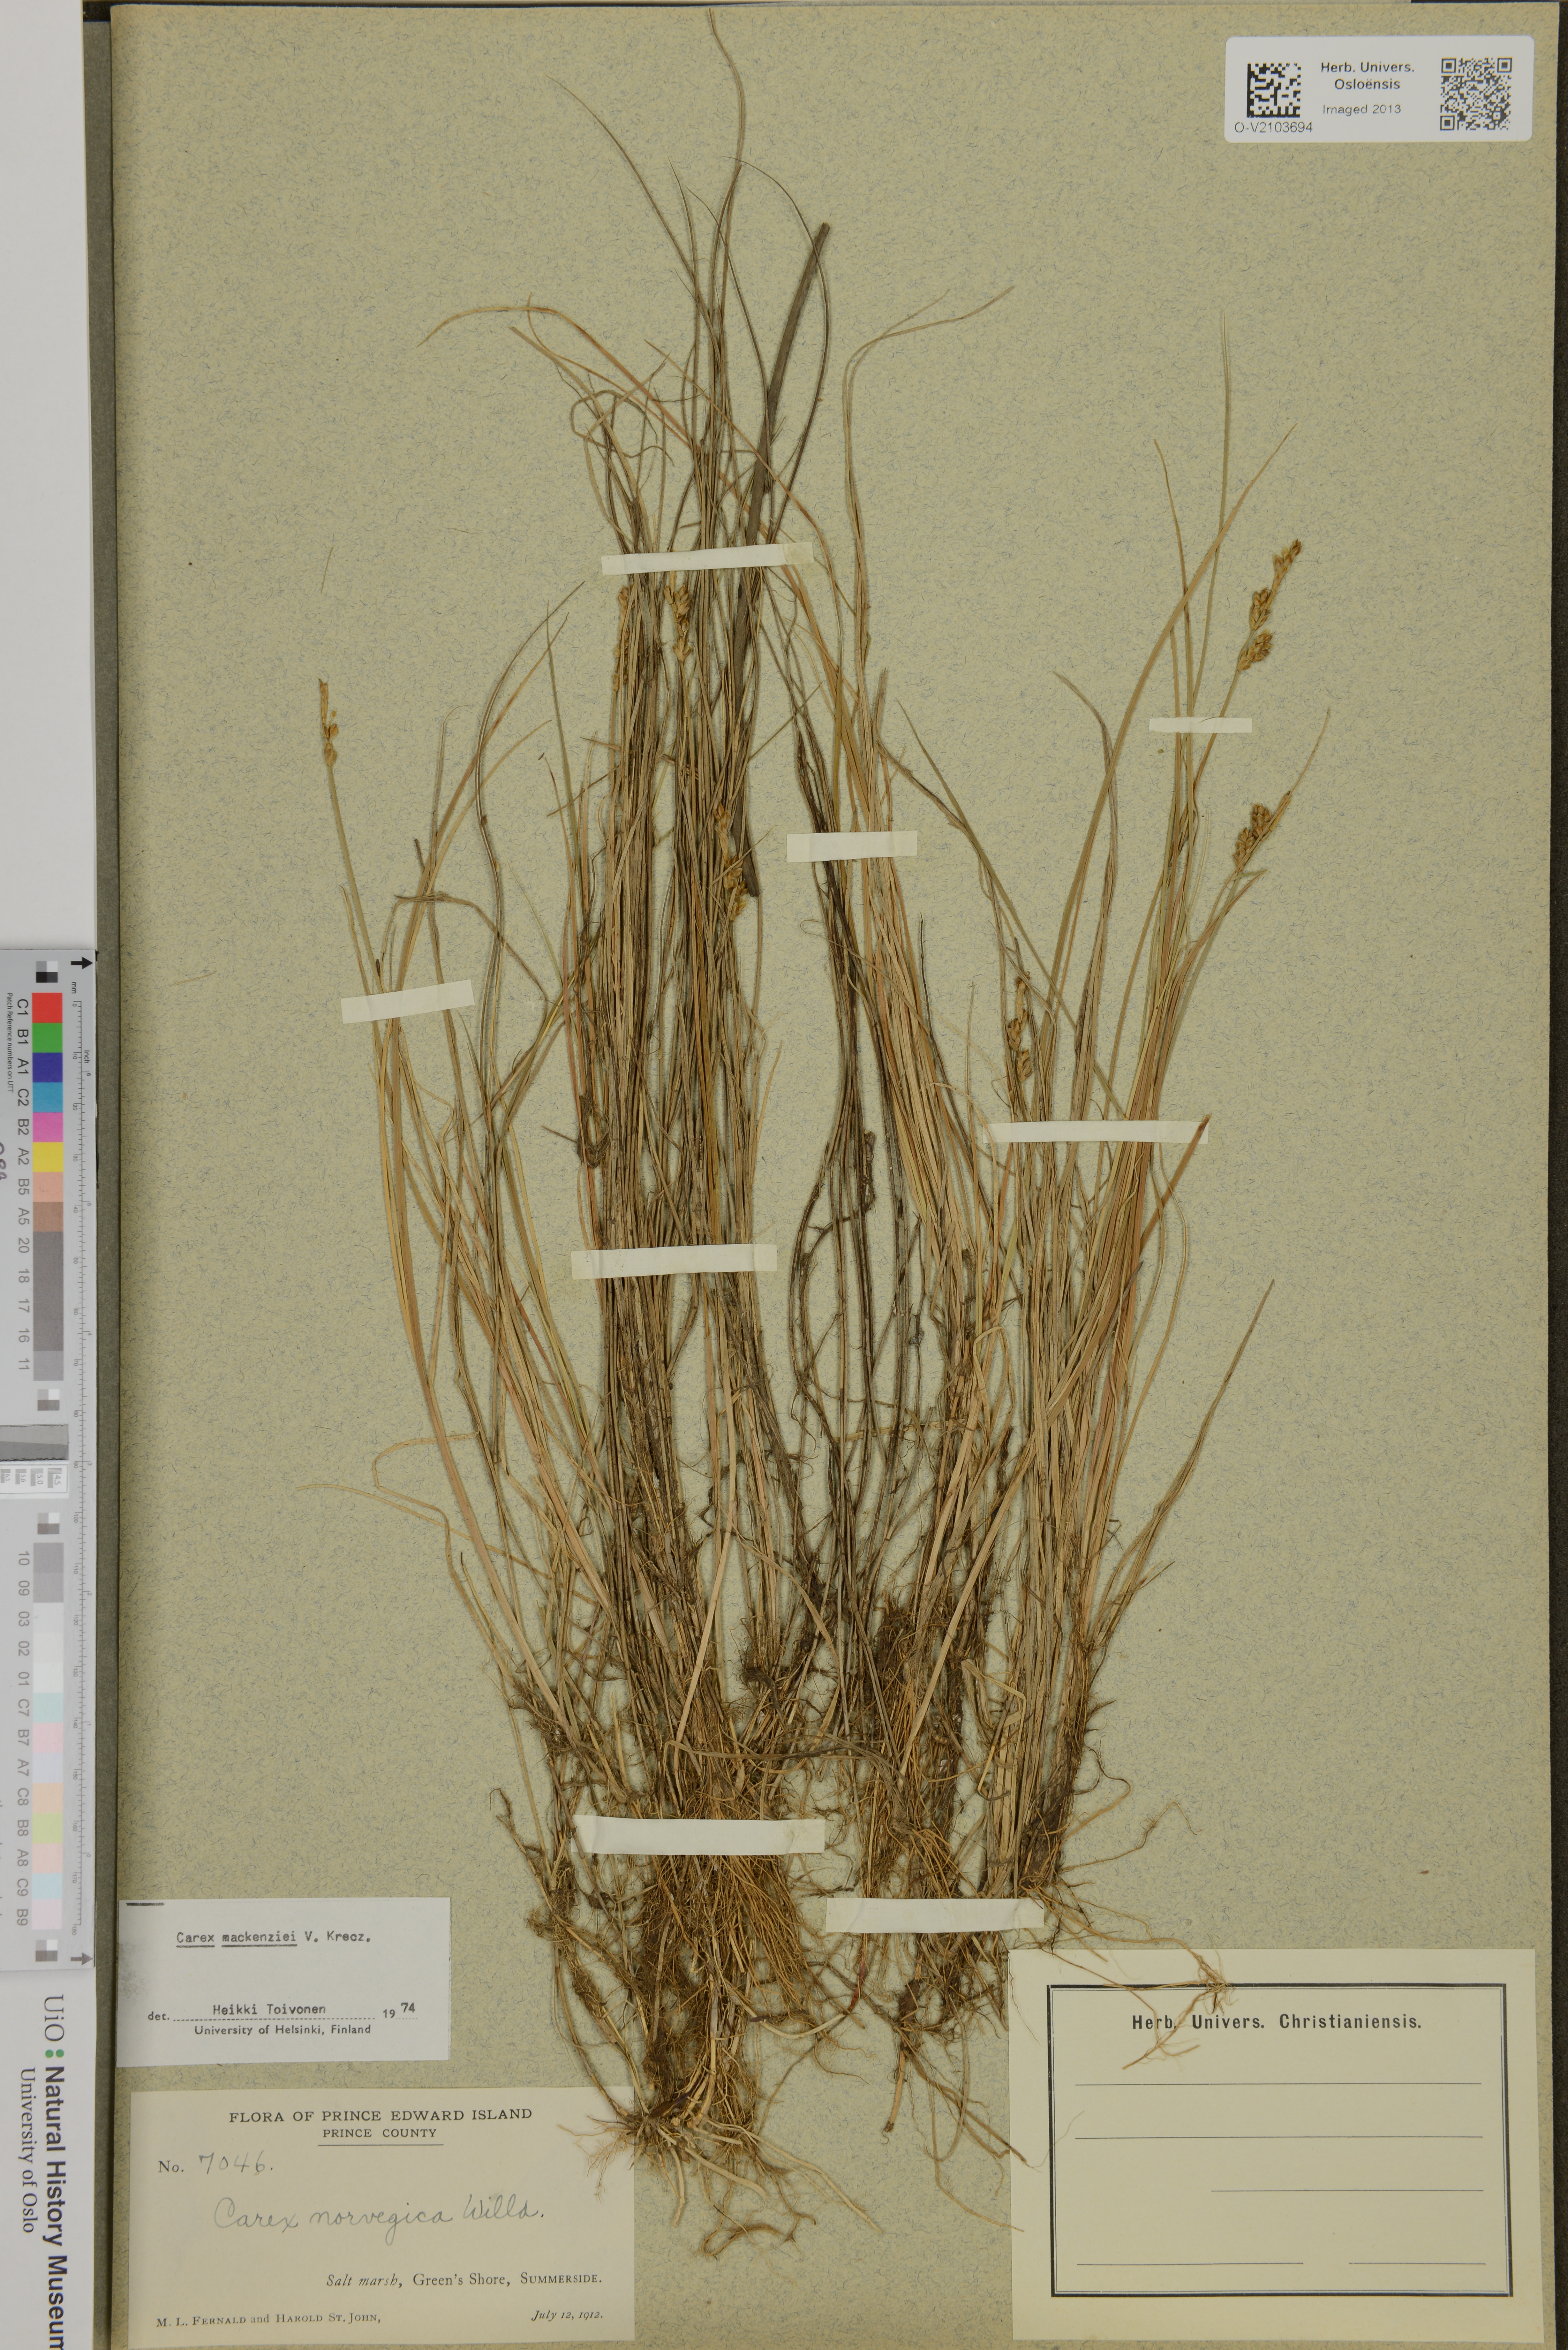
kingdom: Plantae
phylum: Tracheophyta
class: Liliopsida
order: Poales
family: Cyperaceae
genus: Carex
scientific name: Carex mackenziei
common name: Mackenzie's sedge
